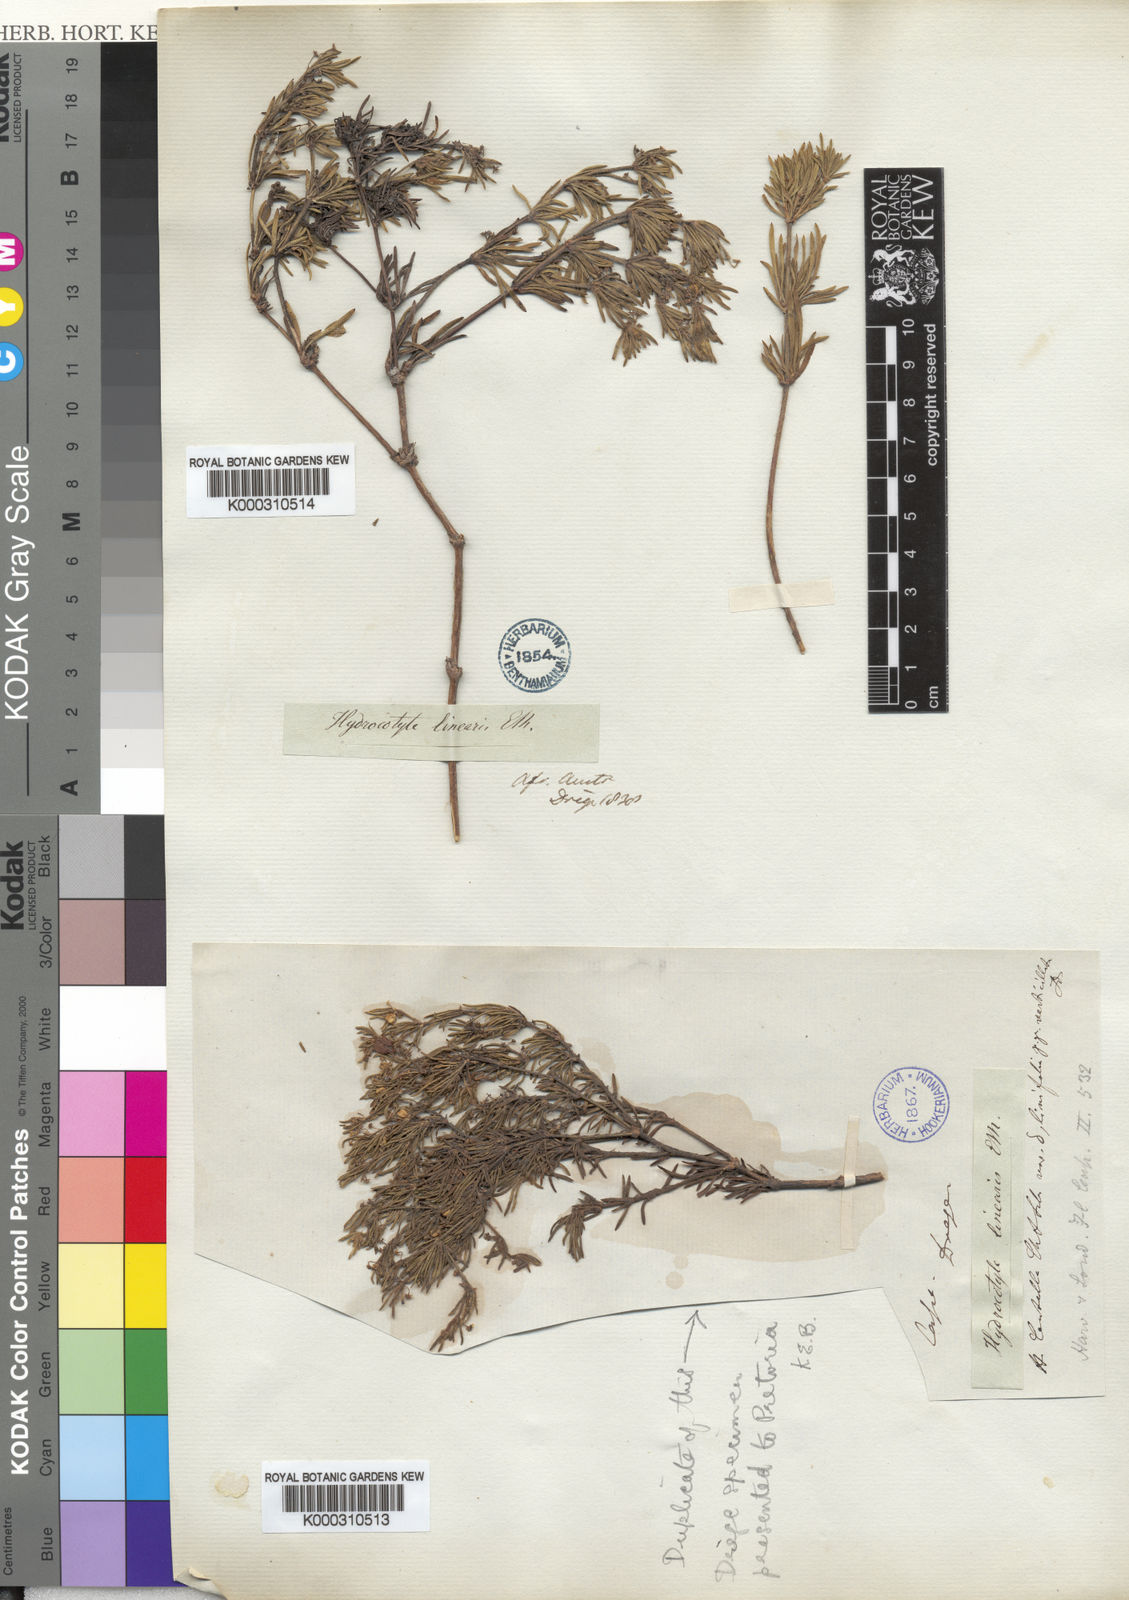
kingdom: Plantae
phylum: Tracheophyta
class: Magnoliopsida
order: Apiales
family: Apiaceae
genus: Centella
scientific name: Centella affinis
